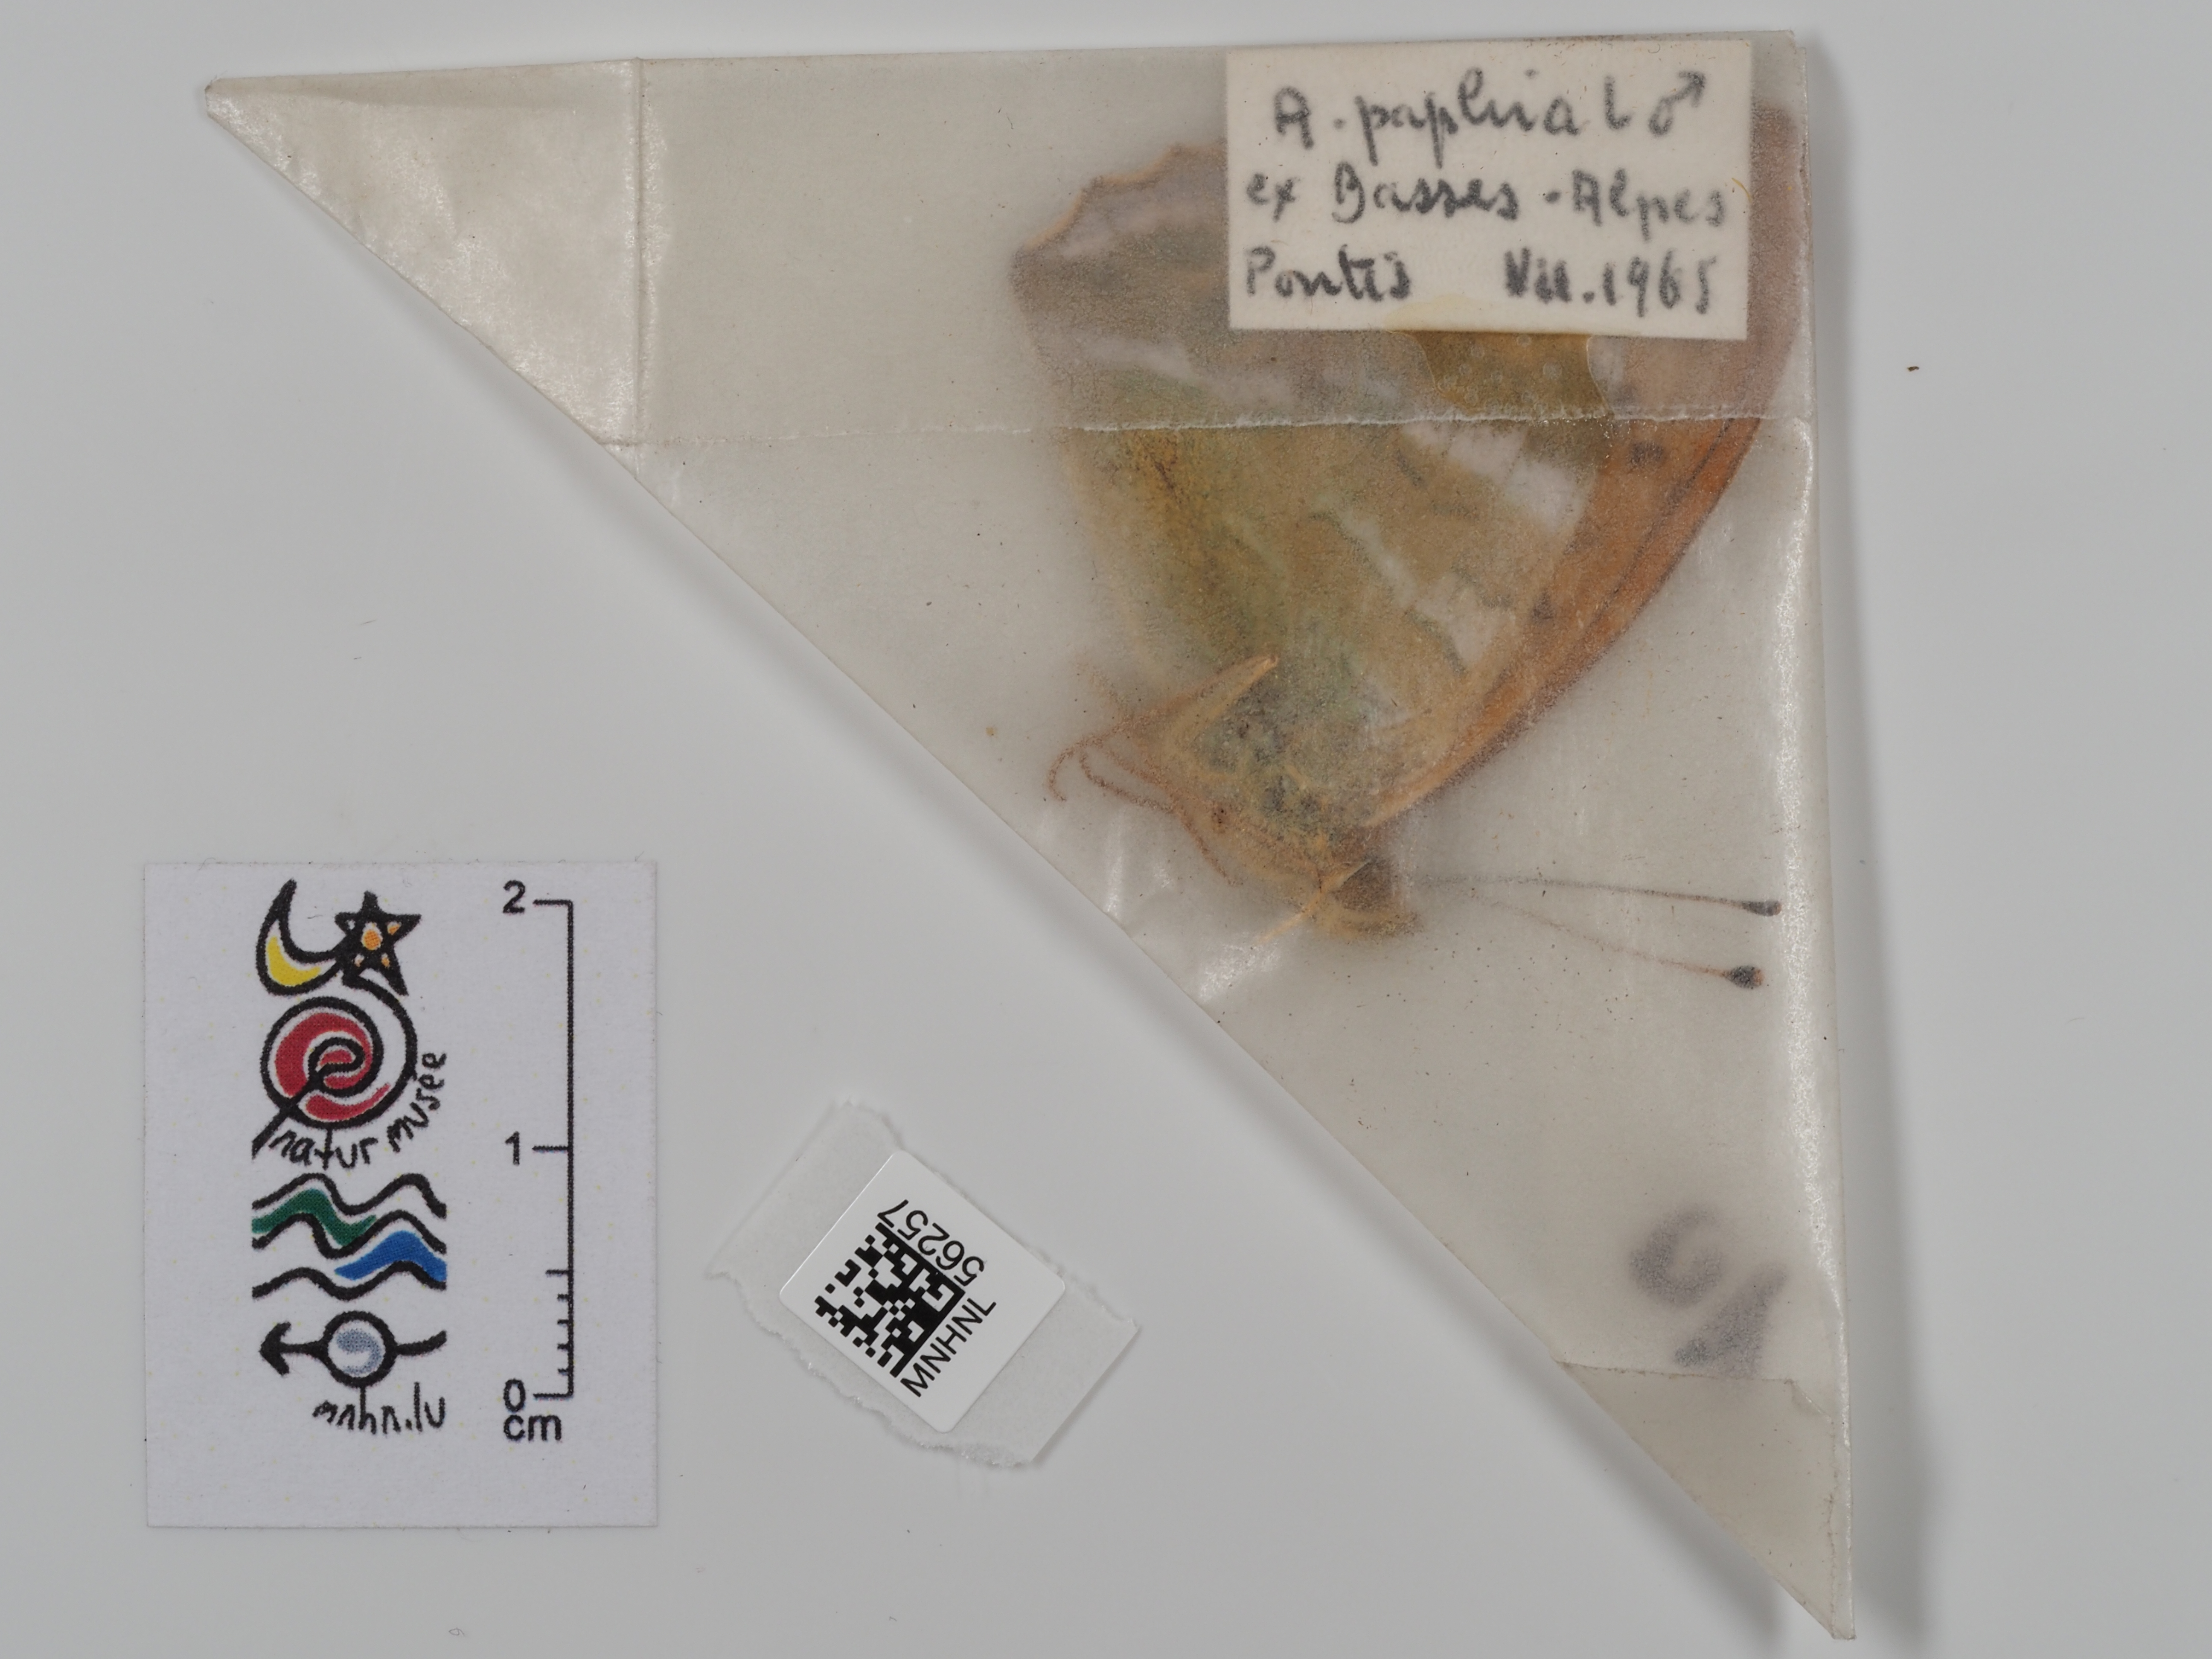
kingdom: Animalia
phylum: Arthropoda
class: Insecta
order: Lepidoptera
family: Nymphalidae
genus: Argynnis
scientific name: Argynnis paphia
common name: Silver-washed fritillary
